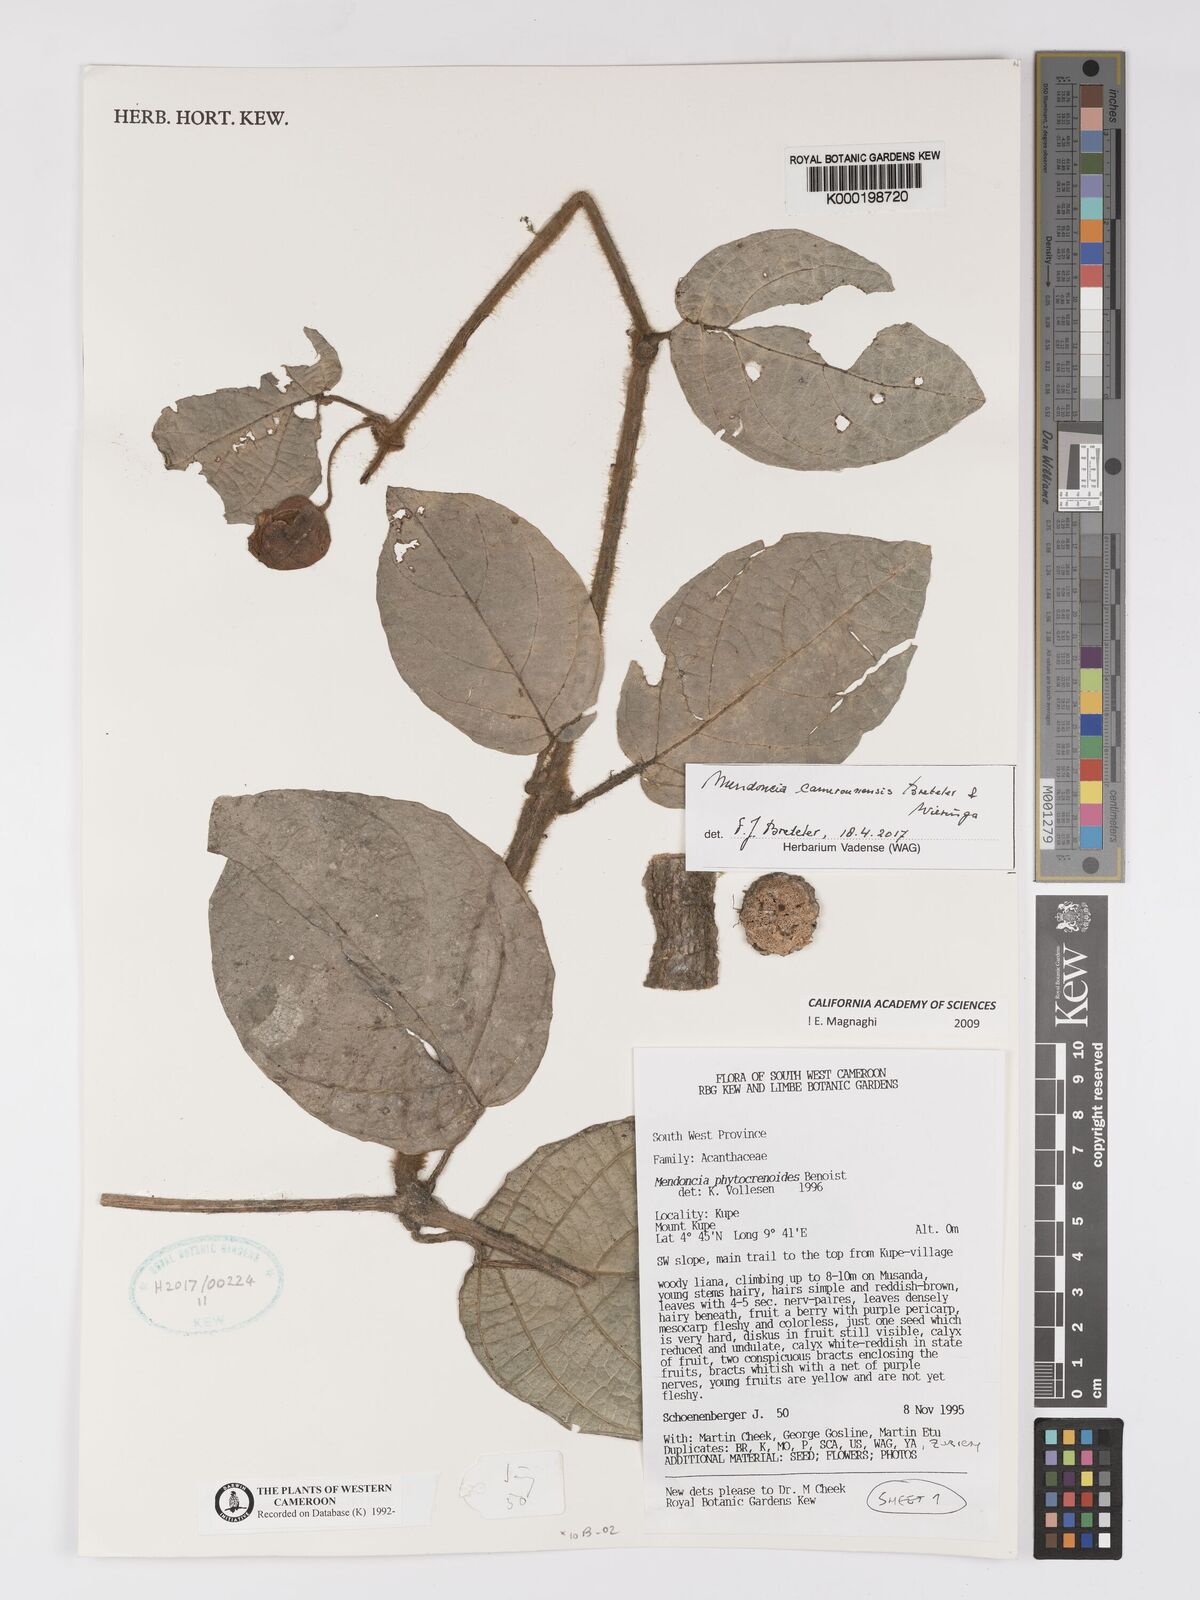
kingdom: Plantae
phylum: Tracheophyta
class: Magnoliopsida
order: Lamiales
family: Acanthaceae
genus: Mendoncia
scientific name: Mendoncia phytocrenoides
